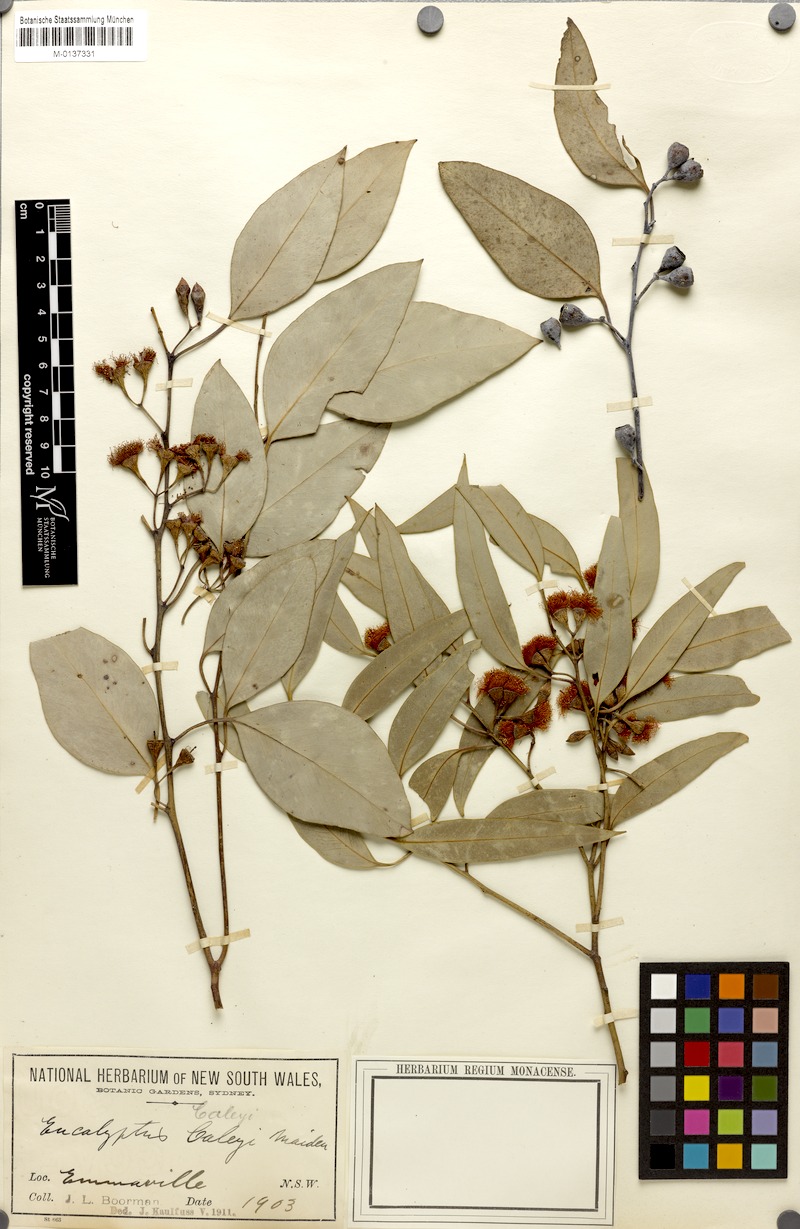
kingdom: Plantae
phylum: Tracheophyta
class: Magnoliopsida
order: Myrtales
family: Myrtaceae
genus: Eucalyptus
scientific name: Eucalyptus caleyi
